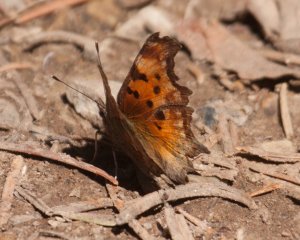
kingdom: Animalia
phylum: Arthropoda
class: Insecta
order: Lepidoptera
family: Nymphalidae
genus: Polygonia
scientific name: Polygonia gracilis
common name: Hoary Comma
